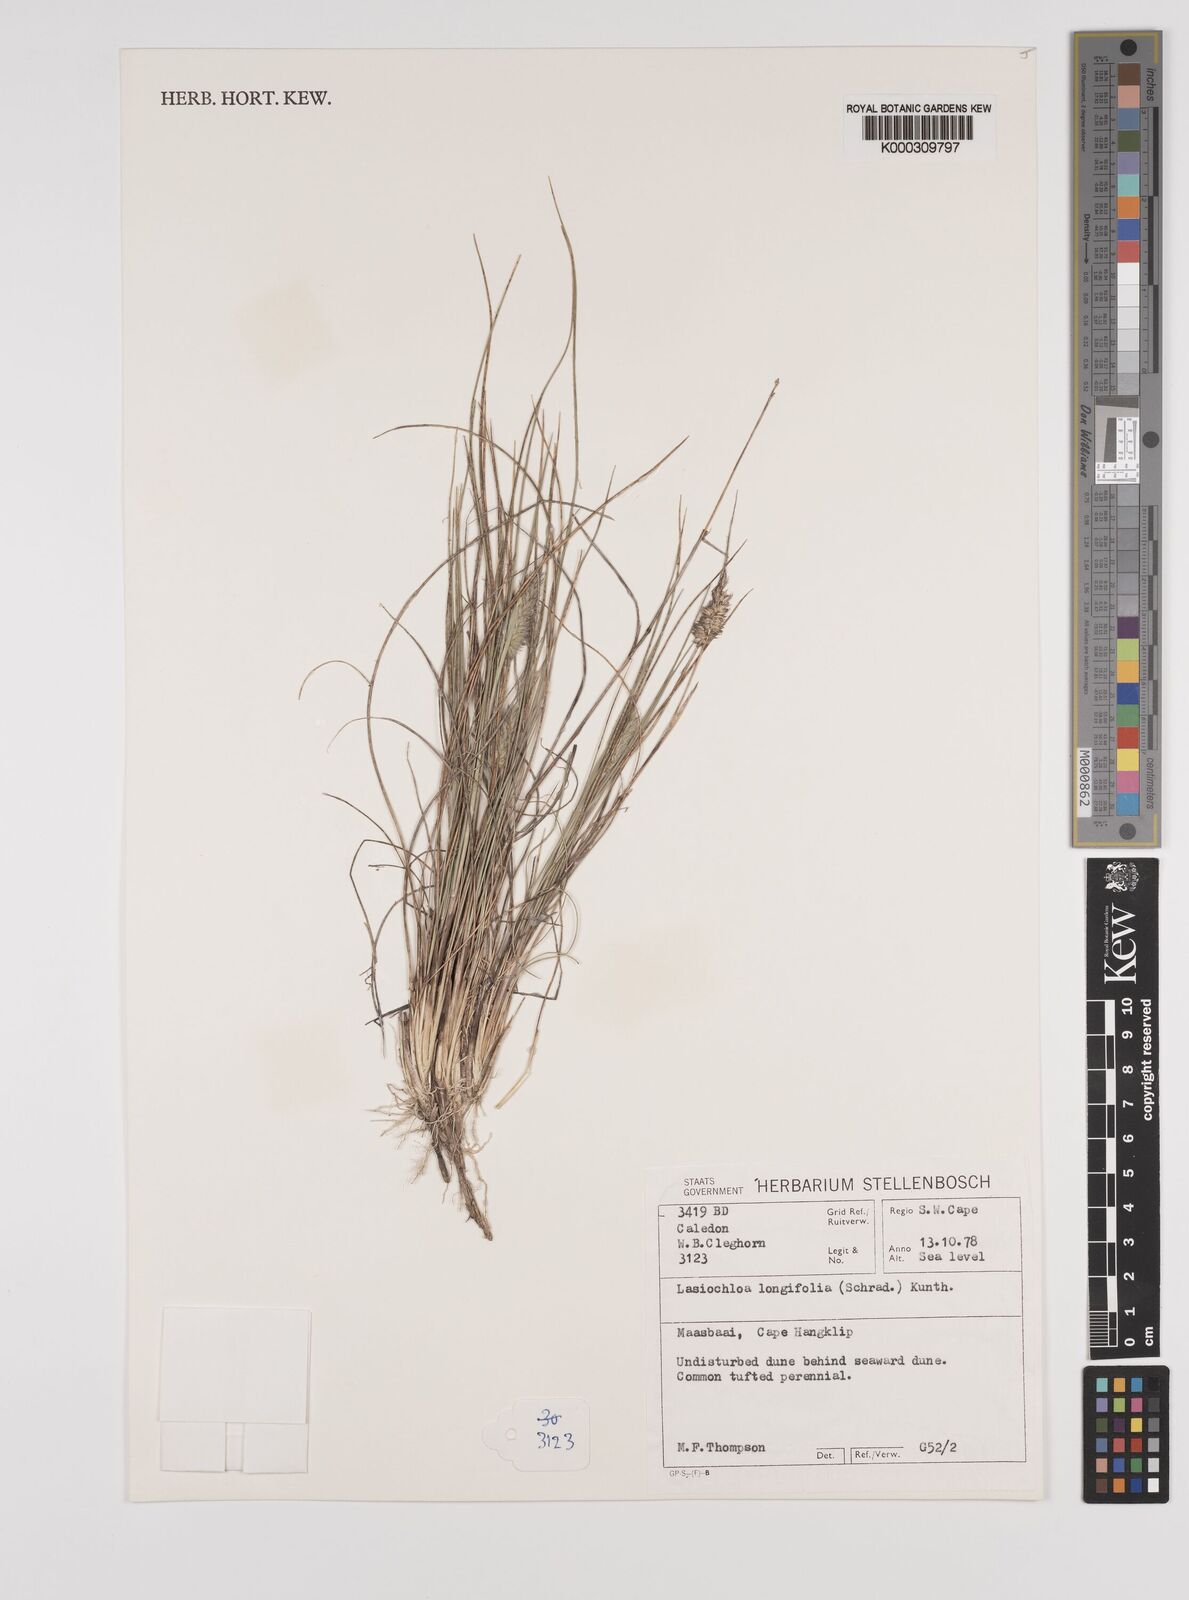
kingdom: Plantae
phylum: Tracheophyta
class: Liliopsida
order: Poales
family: Poaceae
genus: Tribolium
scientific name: Tribolium hispidum
